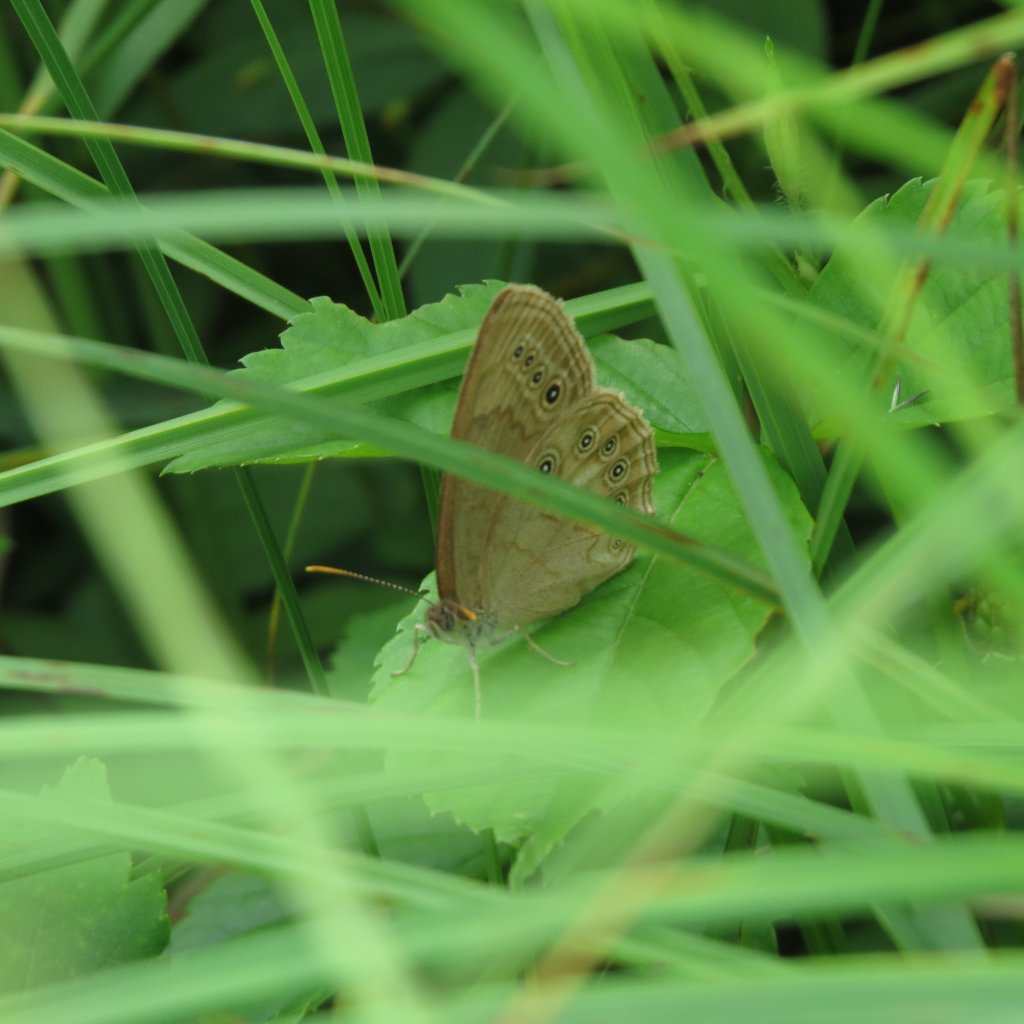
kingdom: Animalia
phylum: Arthropoda
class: Insecta
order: Lepidoptera
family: Nymphalidae
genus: Lethe
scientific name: Lethe eurydice
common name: Eyed Brown
